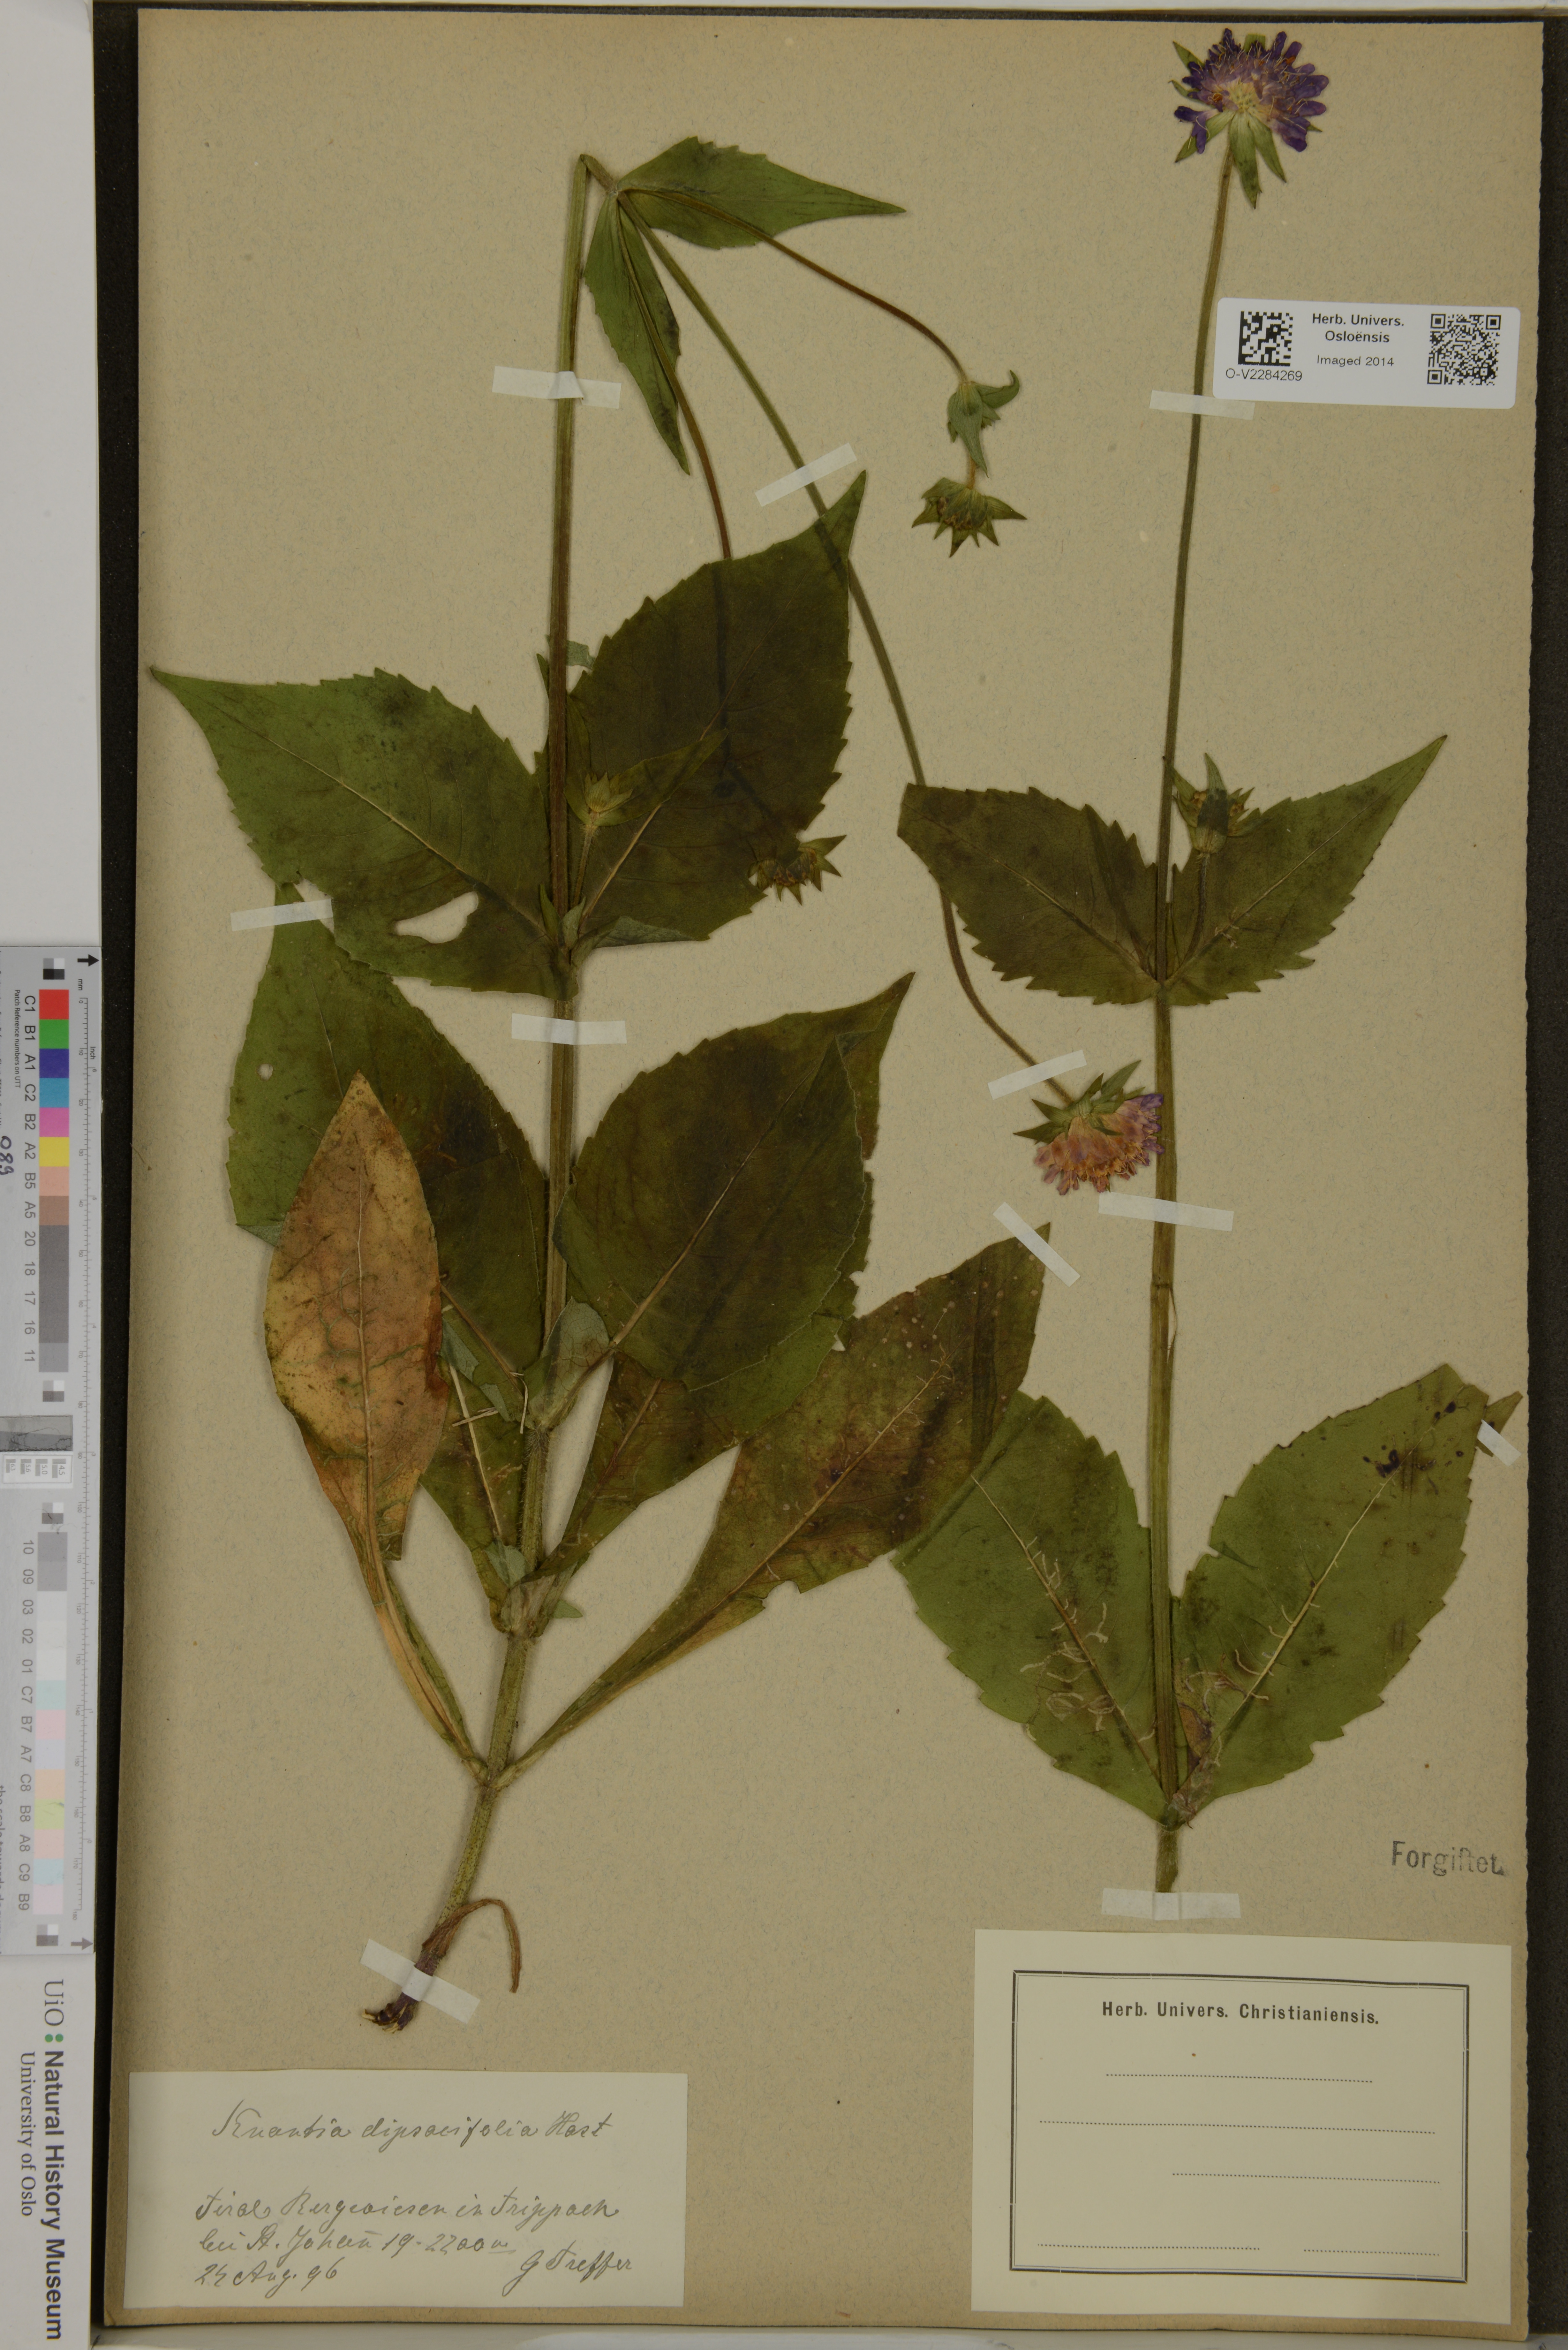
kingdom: Plantae
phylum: Tracheophyta
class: Magnoliopsida
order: Dipsacales
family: Caprifoliaceae
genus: Knautia
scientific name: Knautia dipsacifolia
